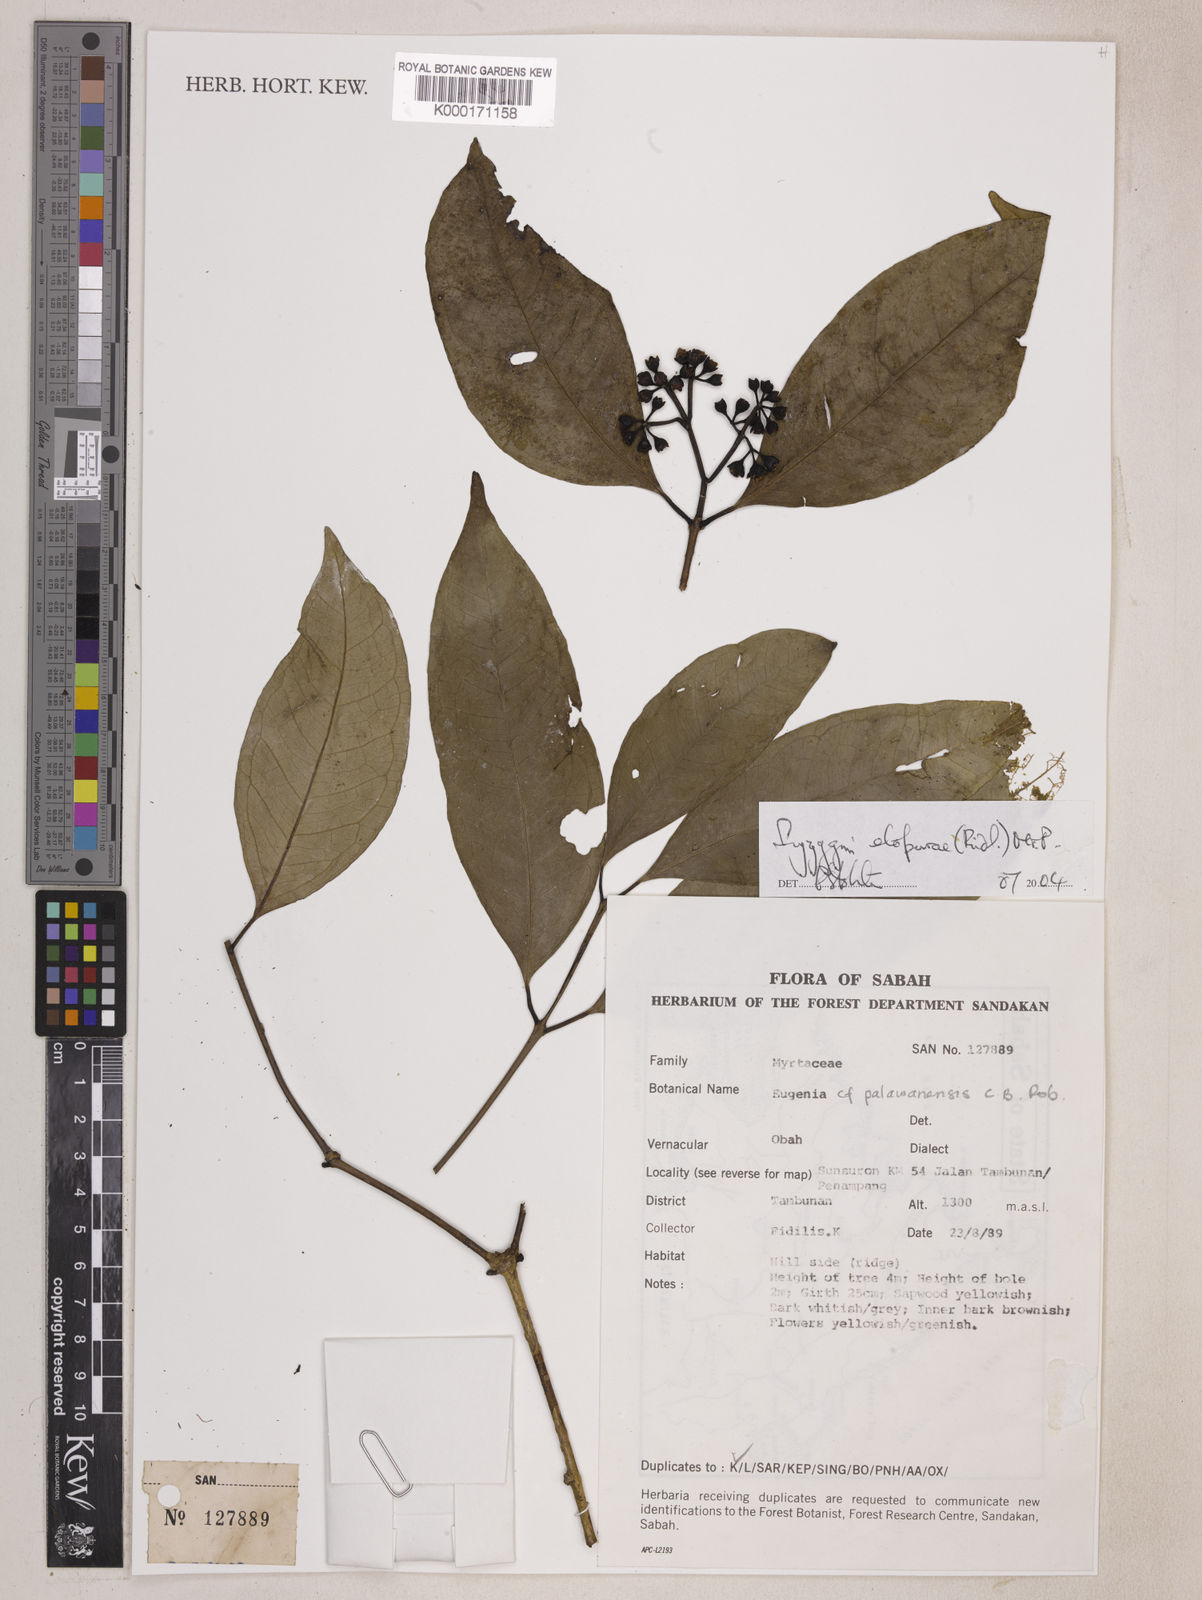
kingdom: Plantae
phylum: Tracheophyta
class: Magnoliopsida
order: Myrtales
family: Myrtaceae
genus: Syzygium
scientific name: Syzygium elopurae
